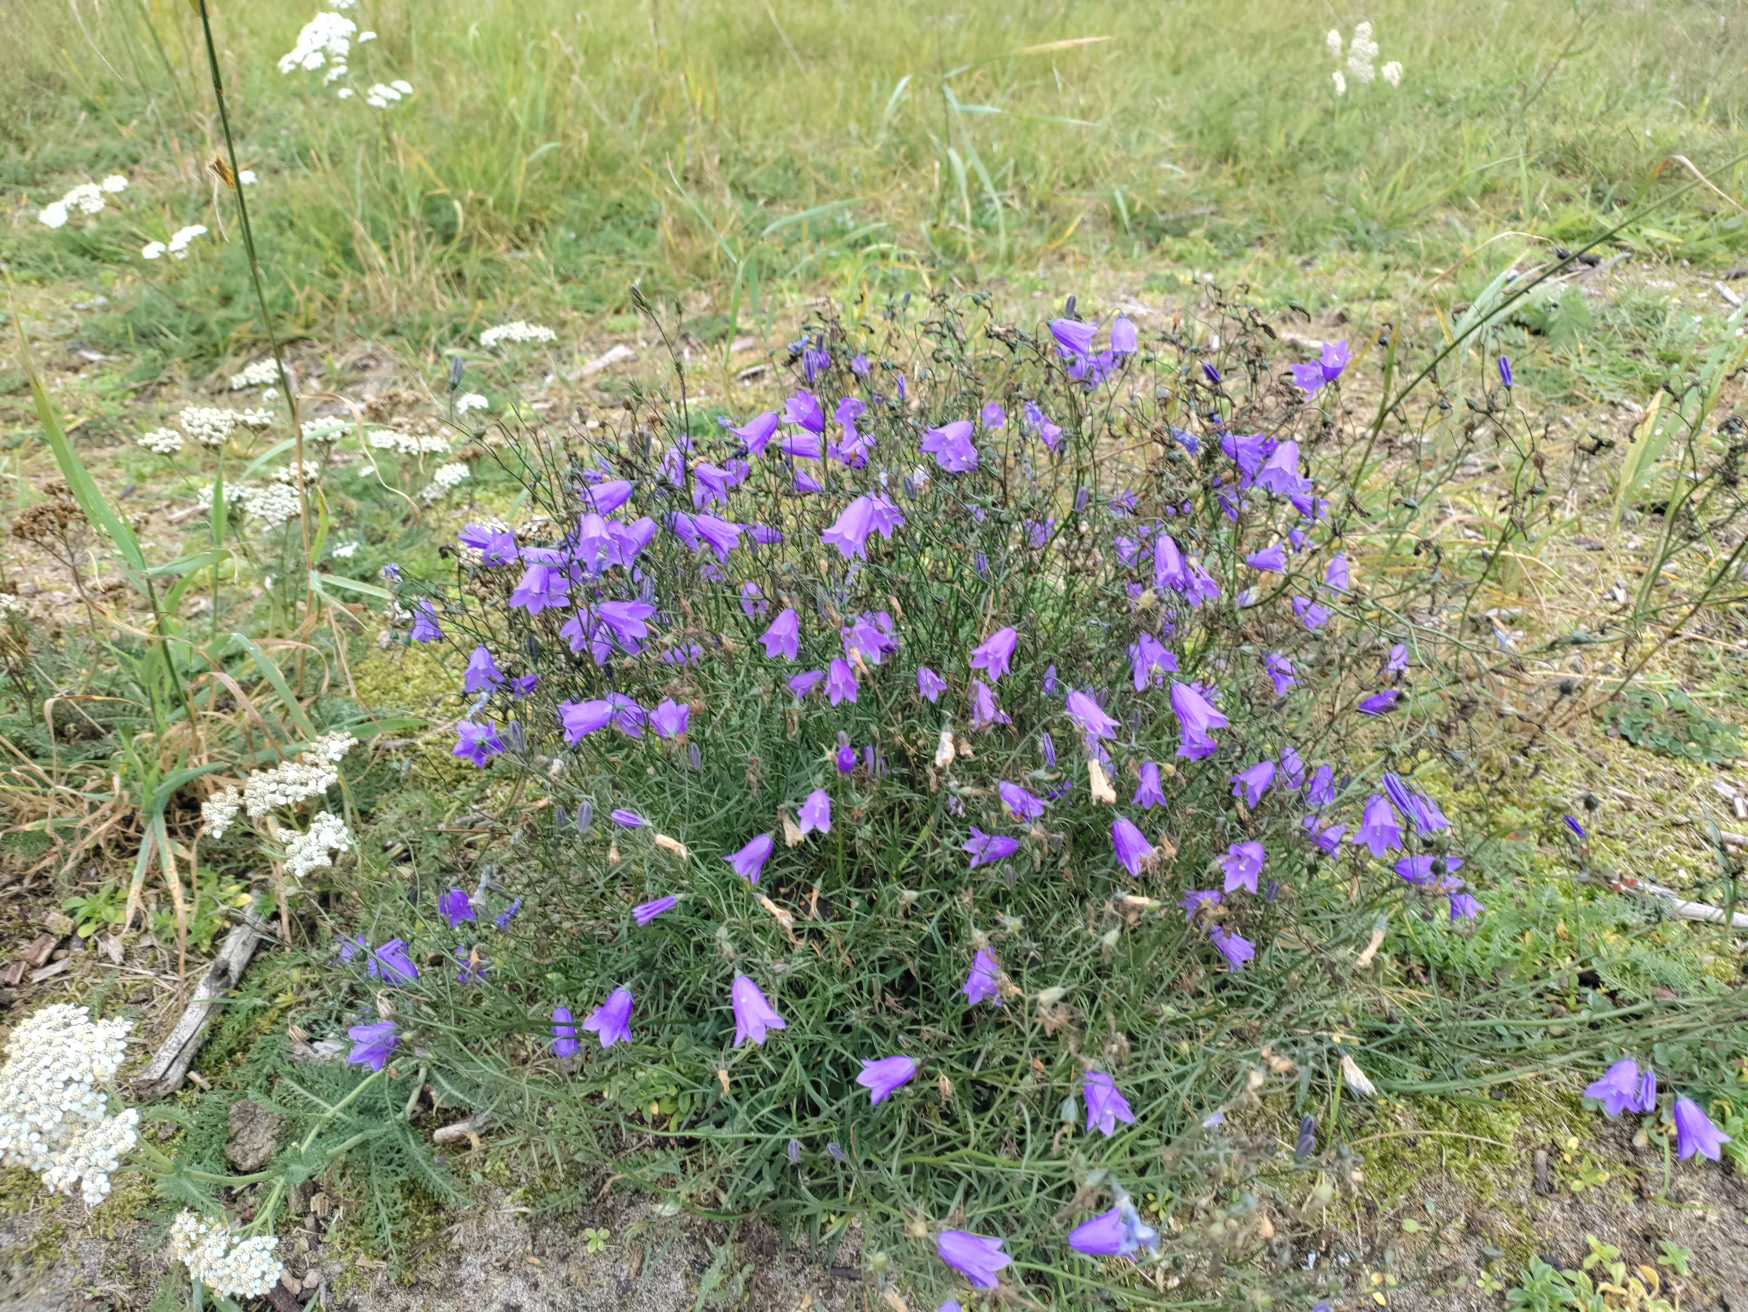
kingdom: Plantae
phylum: Tracheophyta
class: Magnoliopsida
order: Asterales
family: Campanulaceae
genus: Campanula
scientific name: Campanula rotundifolia
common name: Liden klokke
